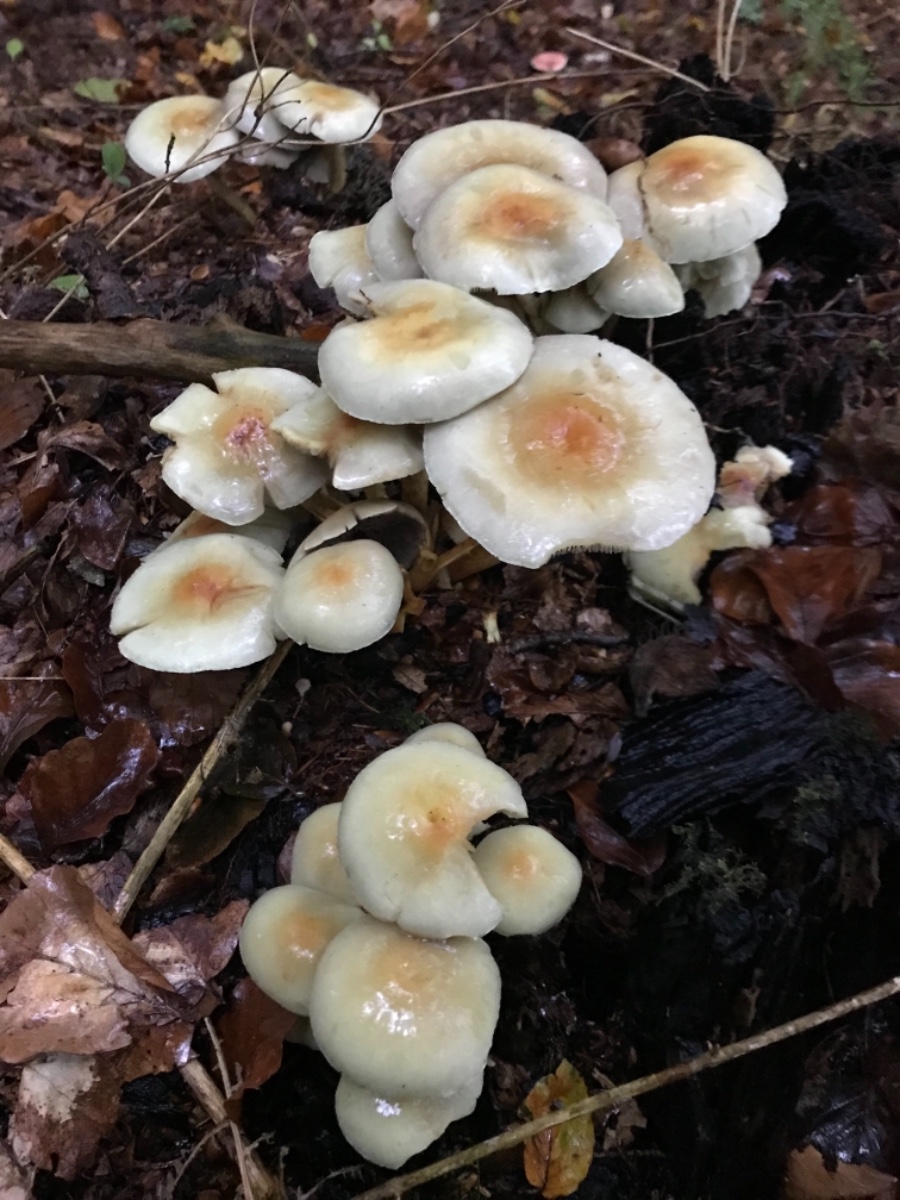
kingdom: Fungi
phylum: Basidiomycota
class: Agaricomycetes
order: Agaricales
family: Strophariaceae
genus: Hypholoma
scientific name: Hypholoma
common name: svovlhat
